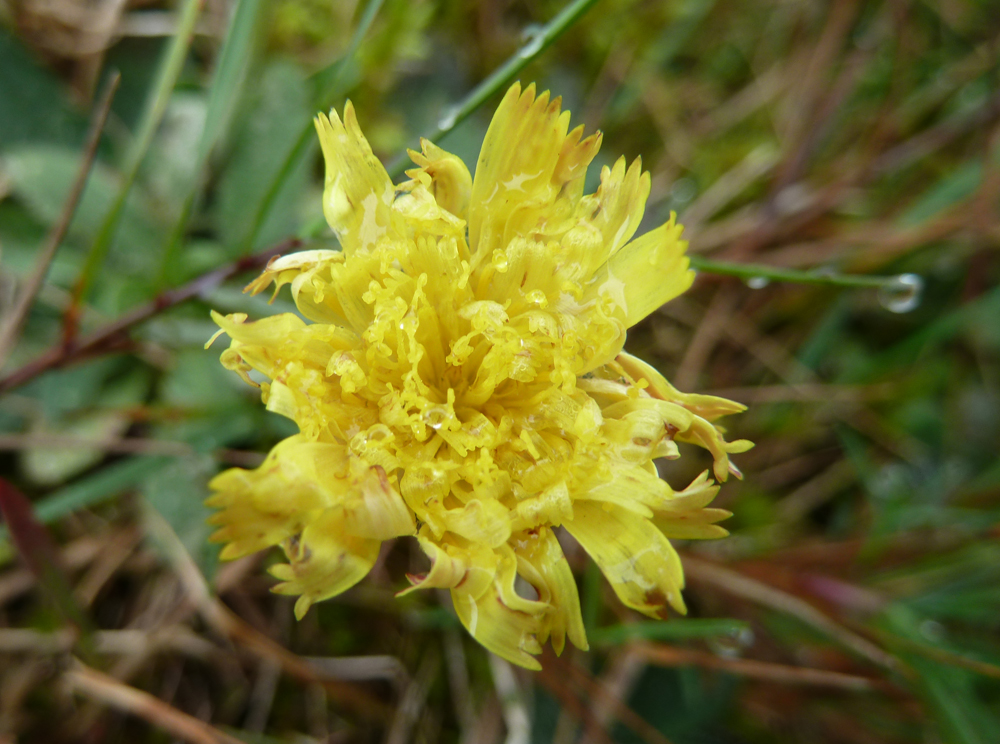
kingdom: Plantae
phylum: Tracheophyta
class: Magnoliopsida
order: Asterales
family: Asteraceae
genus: Pilosella
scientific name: Pilosella officinarum
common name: Mouse-ear hawkweed
